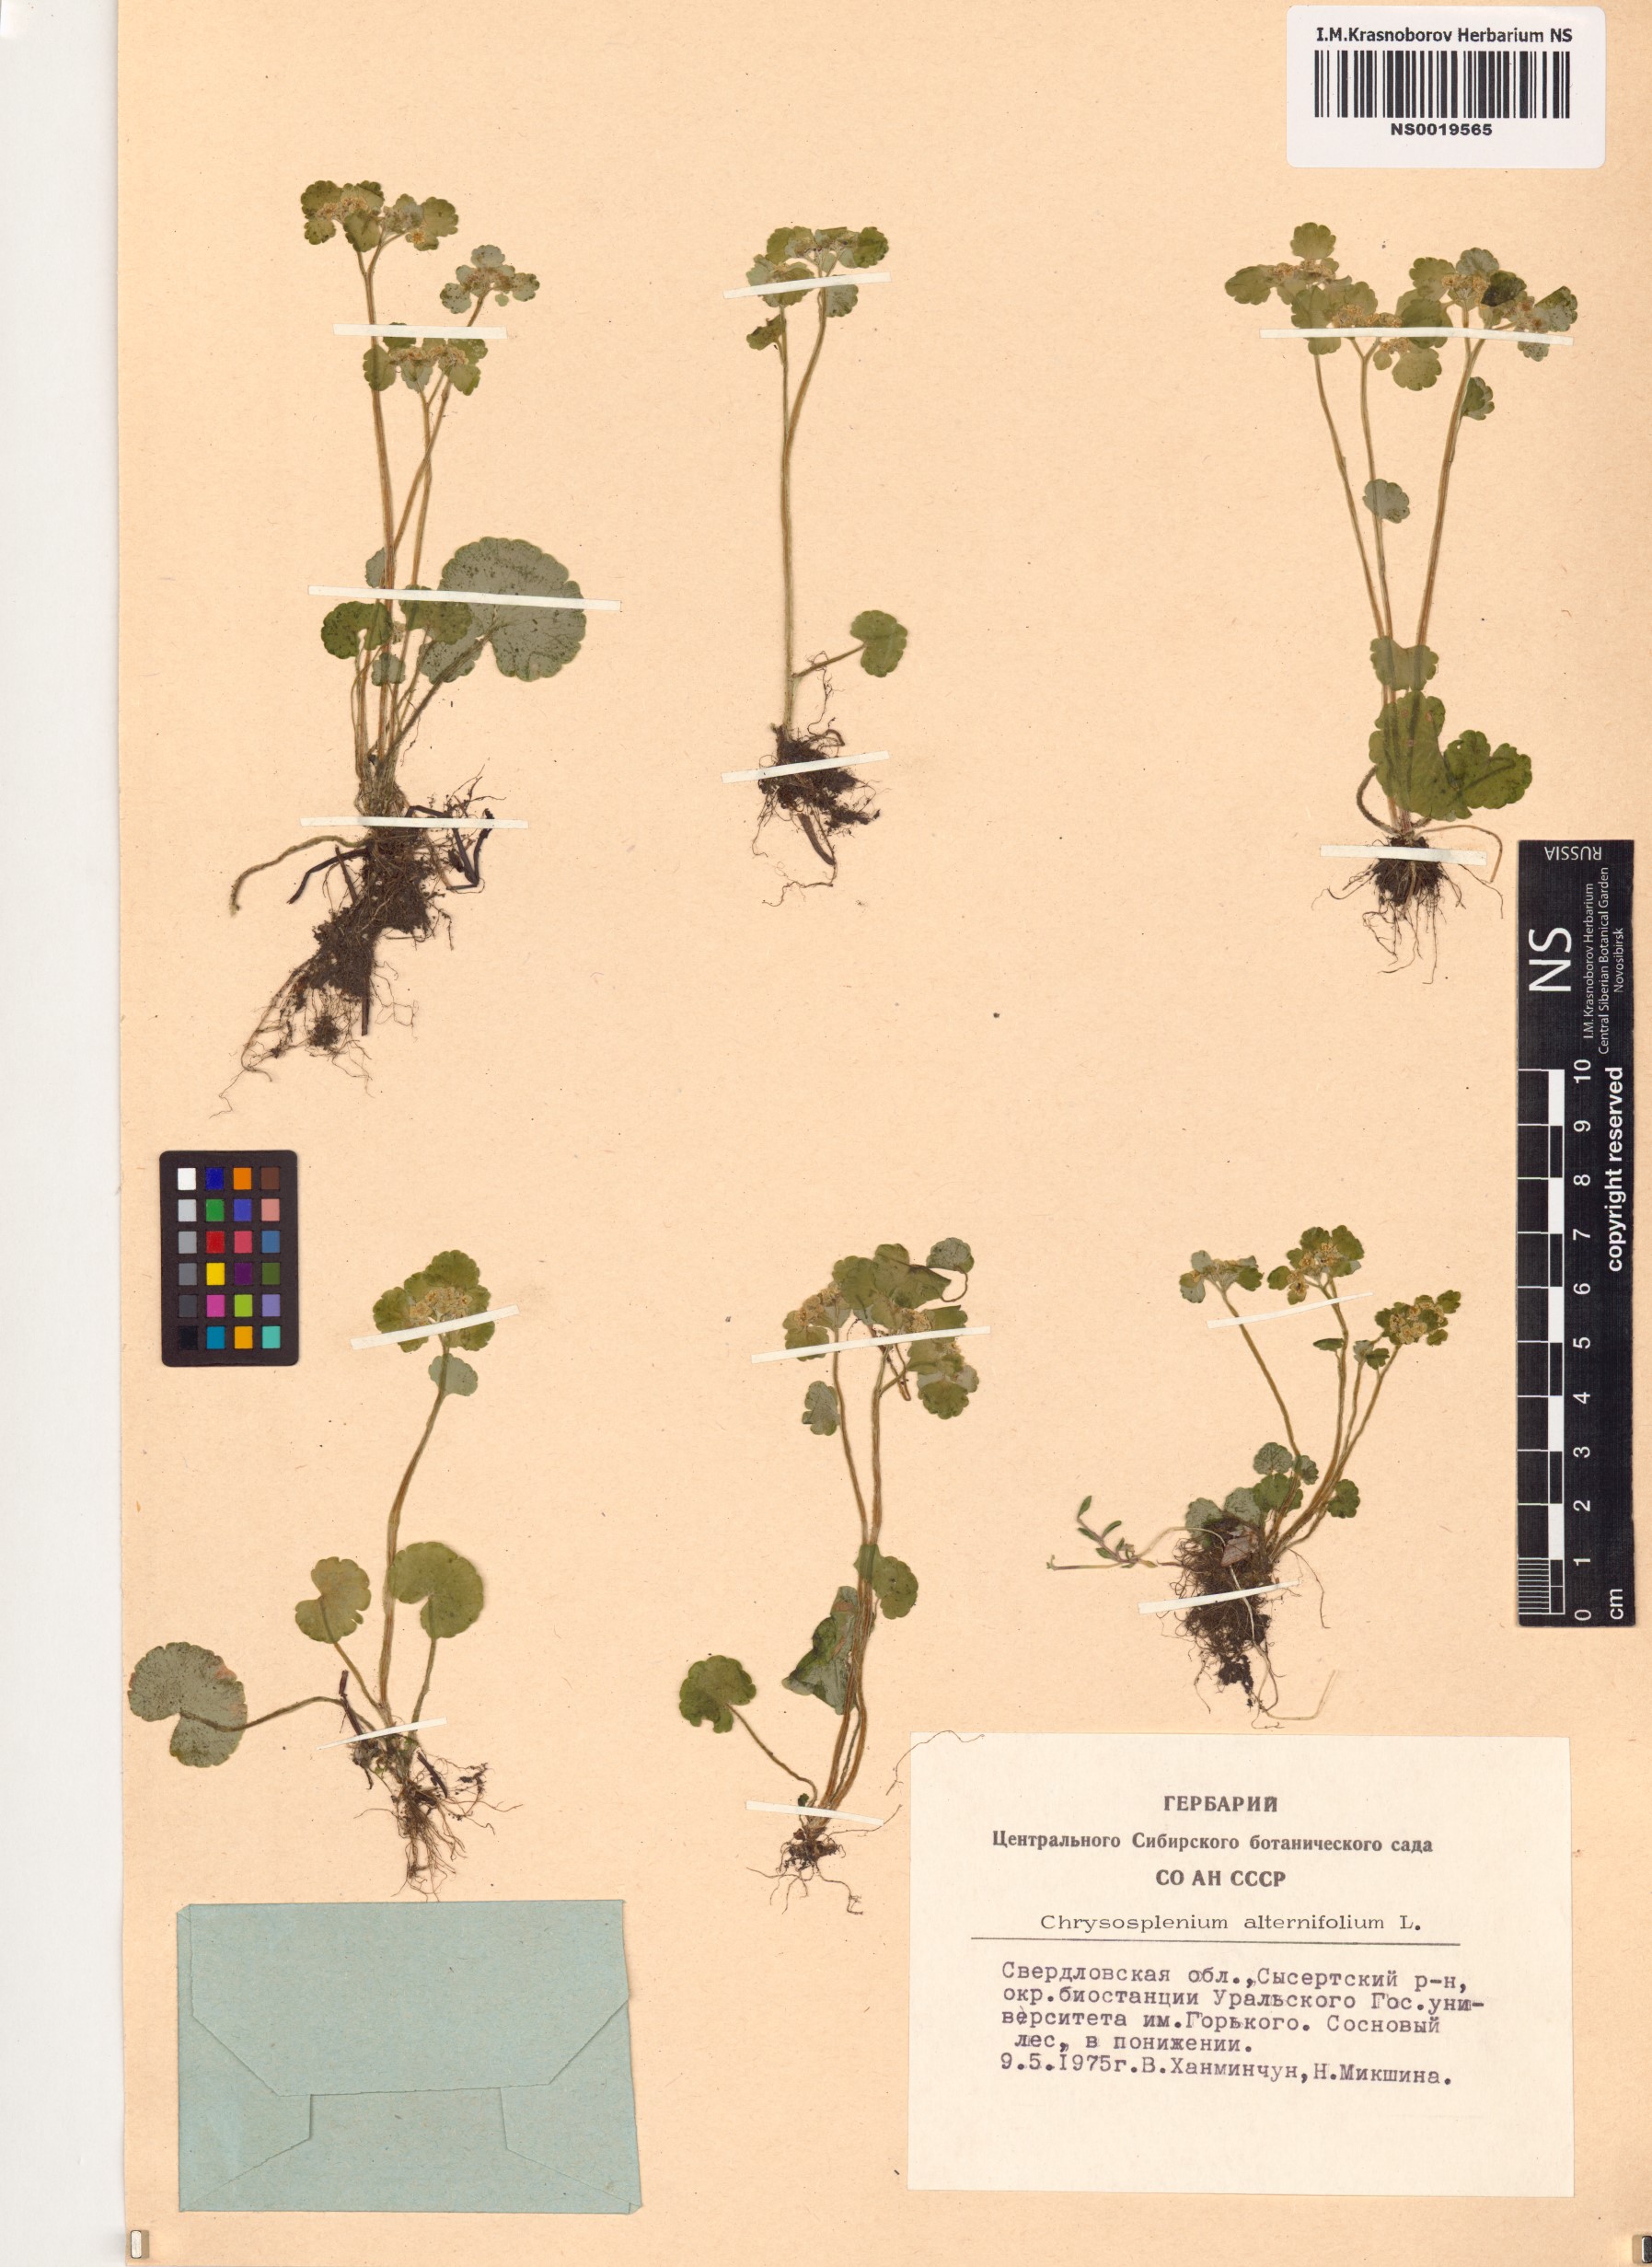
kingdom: Plantae
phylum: Tracheophyta
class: Magnoliopsida
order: Saxifragales
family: Saxifragaceae
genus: Chrysosplenium
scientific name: Chrysosplenium alternifolium
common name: Alternate-leaved golden-saxifrage
